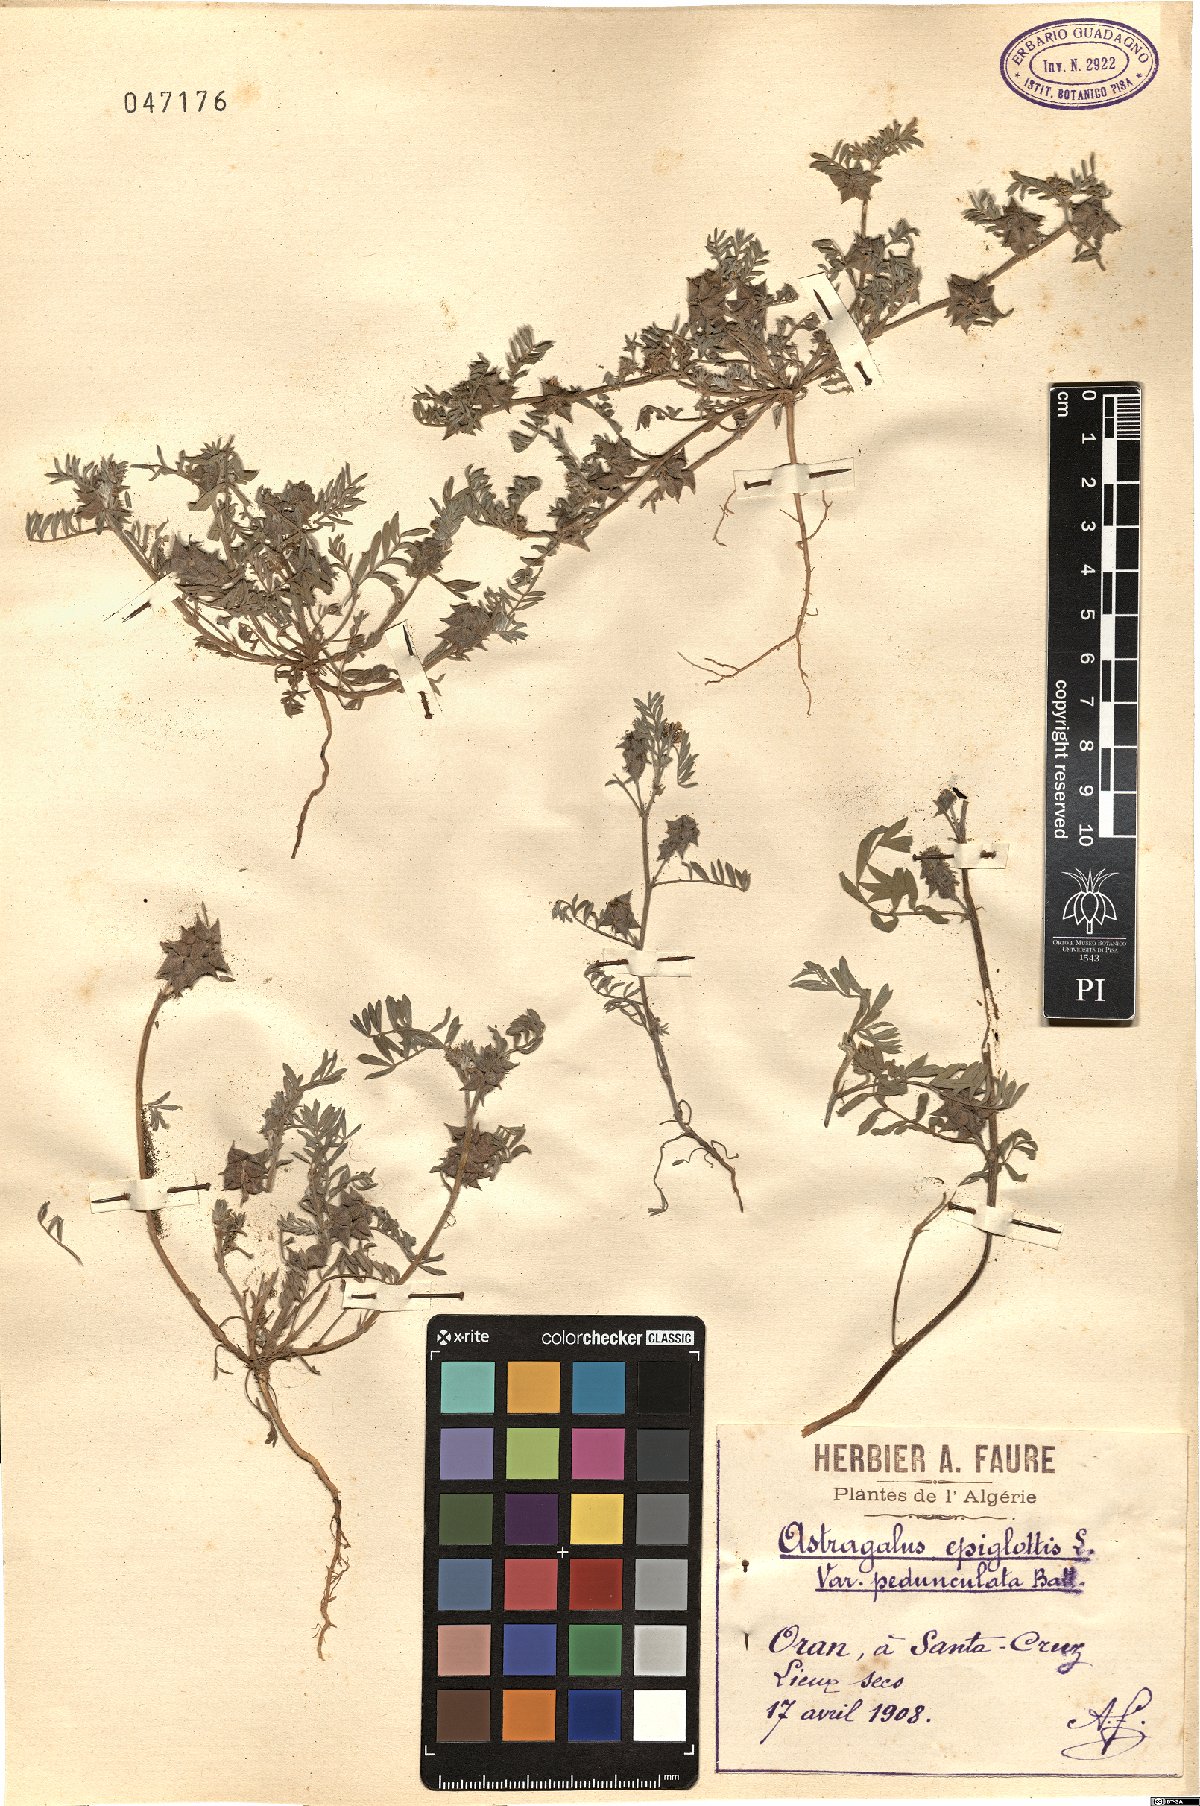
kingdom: Plantae
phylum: Tracheophyta
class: Magnoliopsida
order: Fabales
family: Fabaceae
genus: Biserrula
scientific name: Biserrula epiglottis
